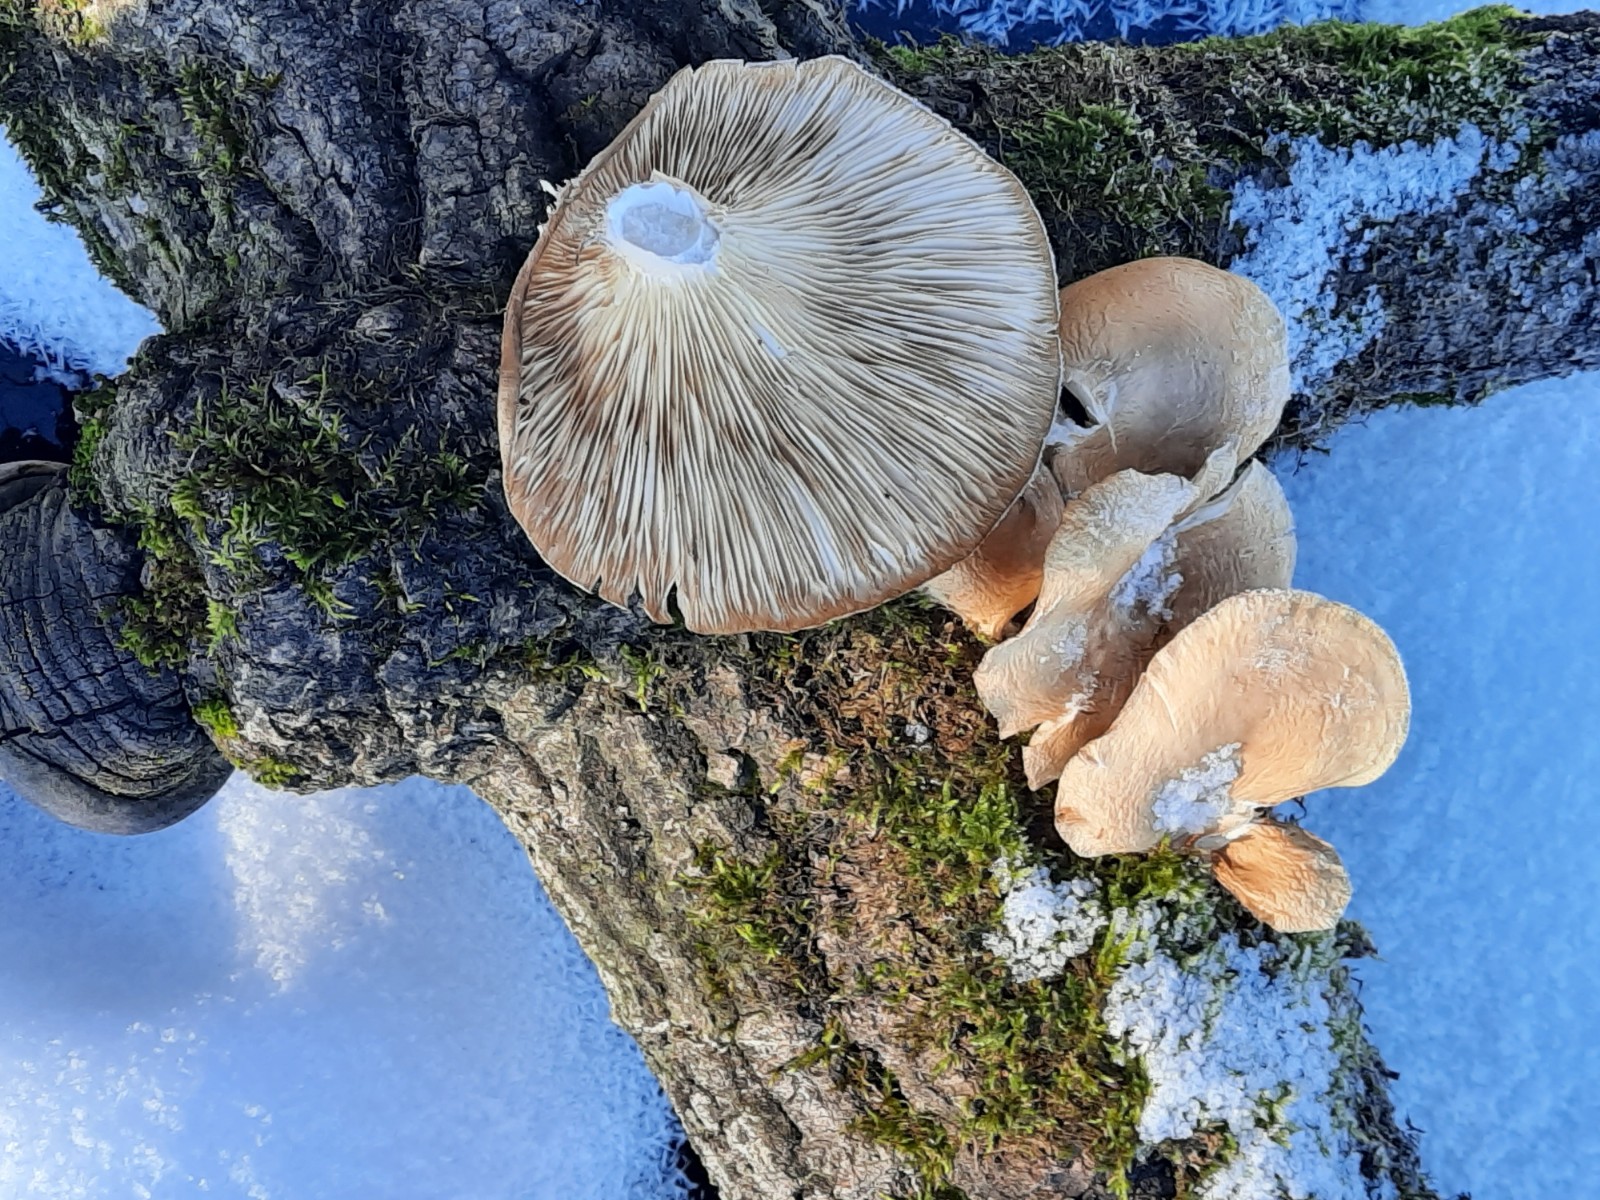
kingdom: Fungi
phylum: Basidiomycota
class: Agaricomycetes
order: Agaricales
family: Pleurotaceae
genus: Pleurotus
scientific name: Pleurotus ostreatus
